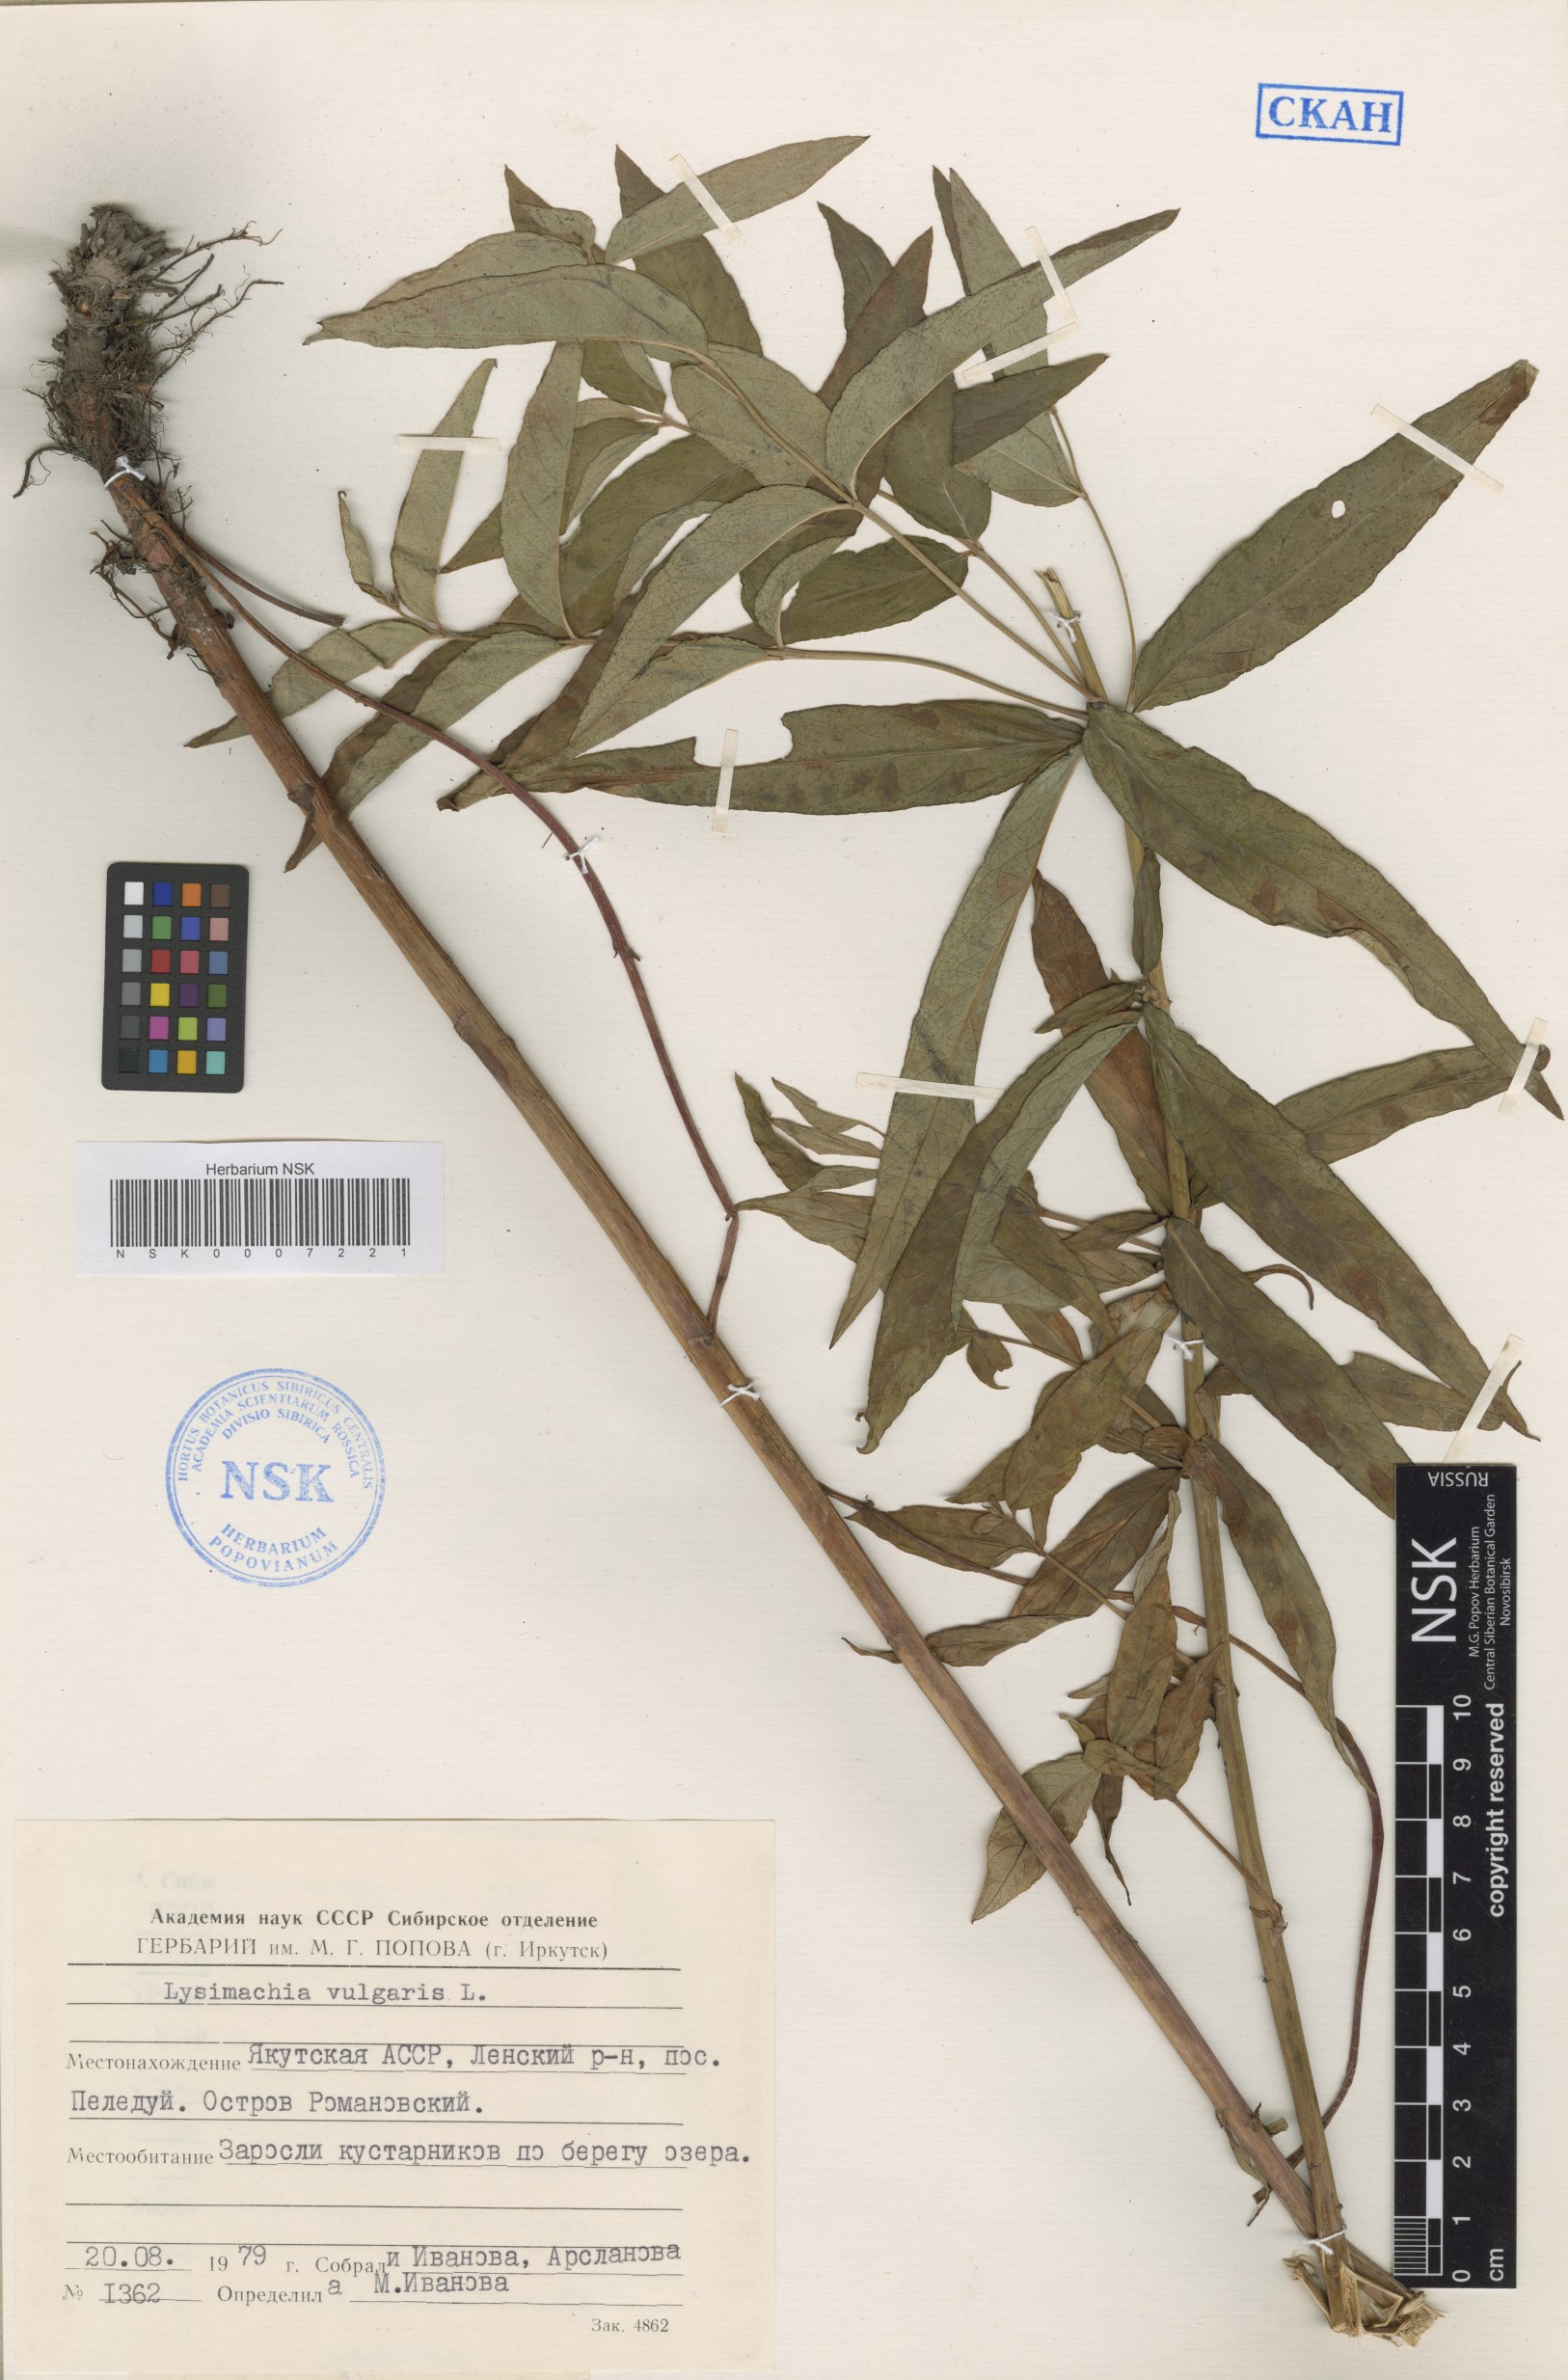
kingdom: Plantae
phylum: Tracheophyta
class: Magnoliopsida
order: Ericales
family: Primulaceae
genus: Lysimachia
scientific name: Lysimachia vulgaris
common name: Yellow loosestrife
